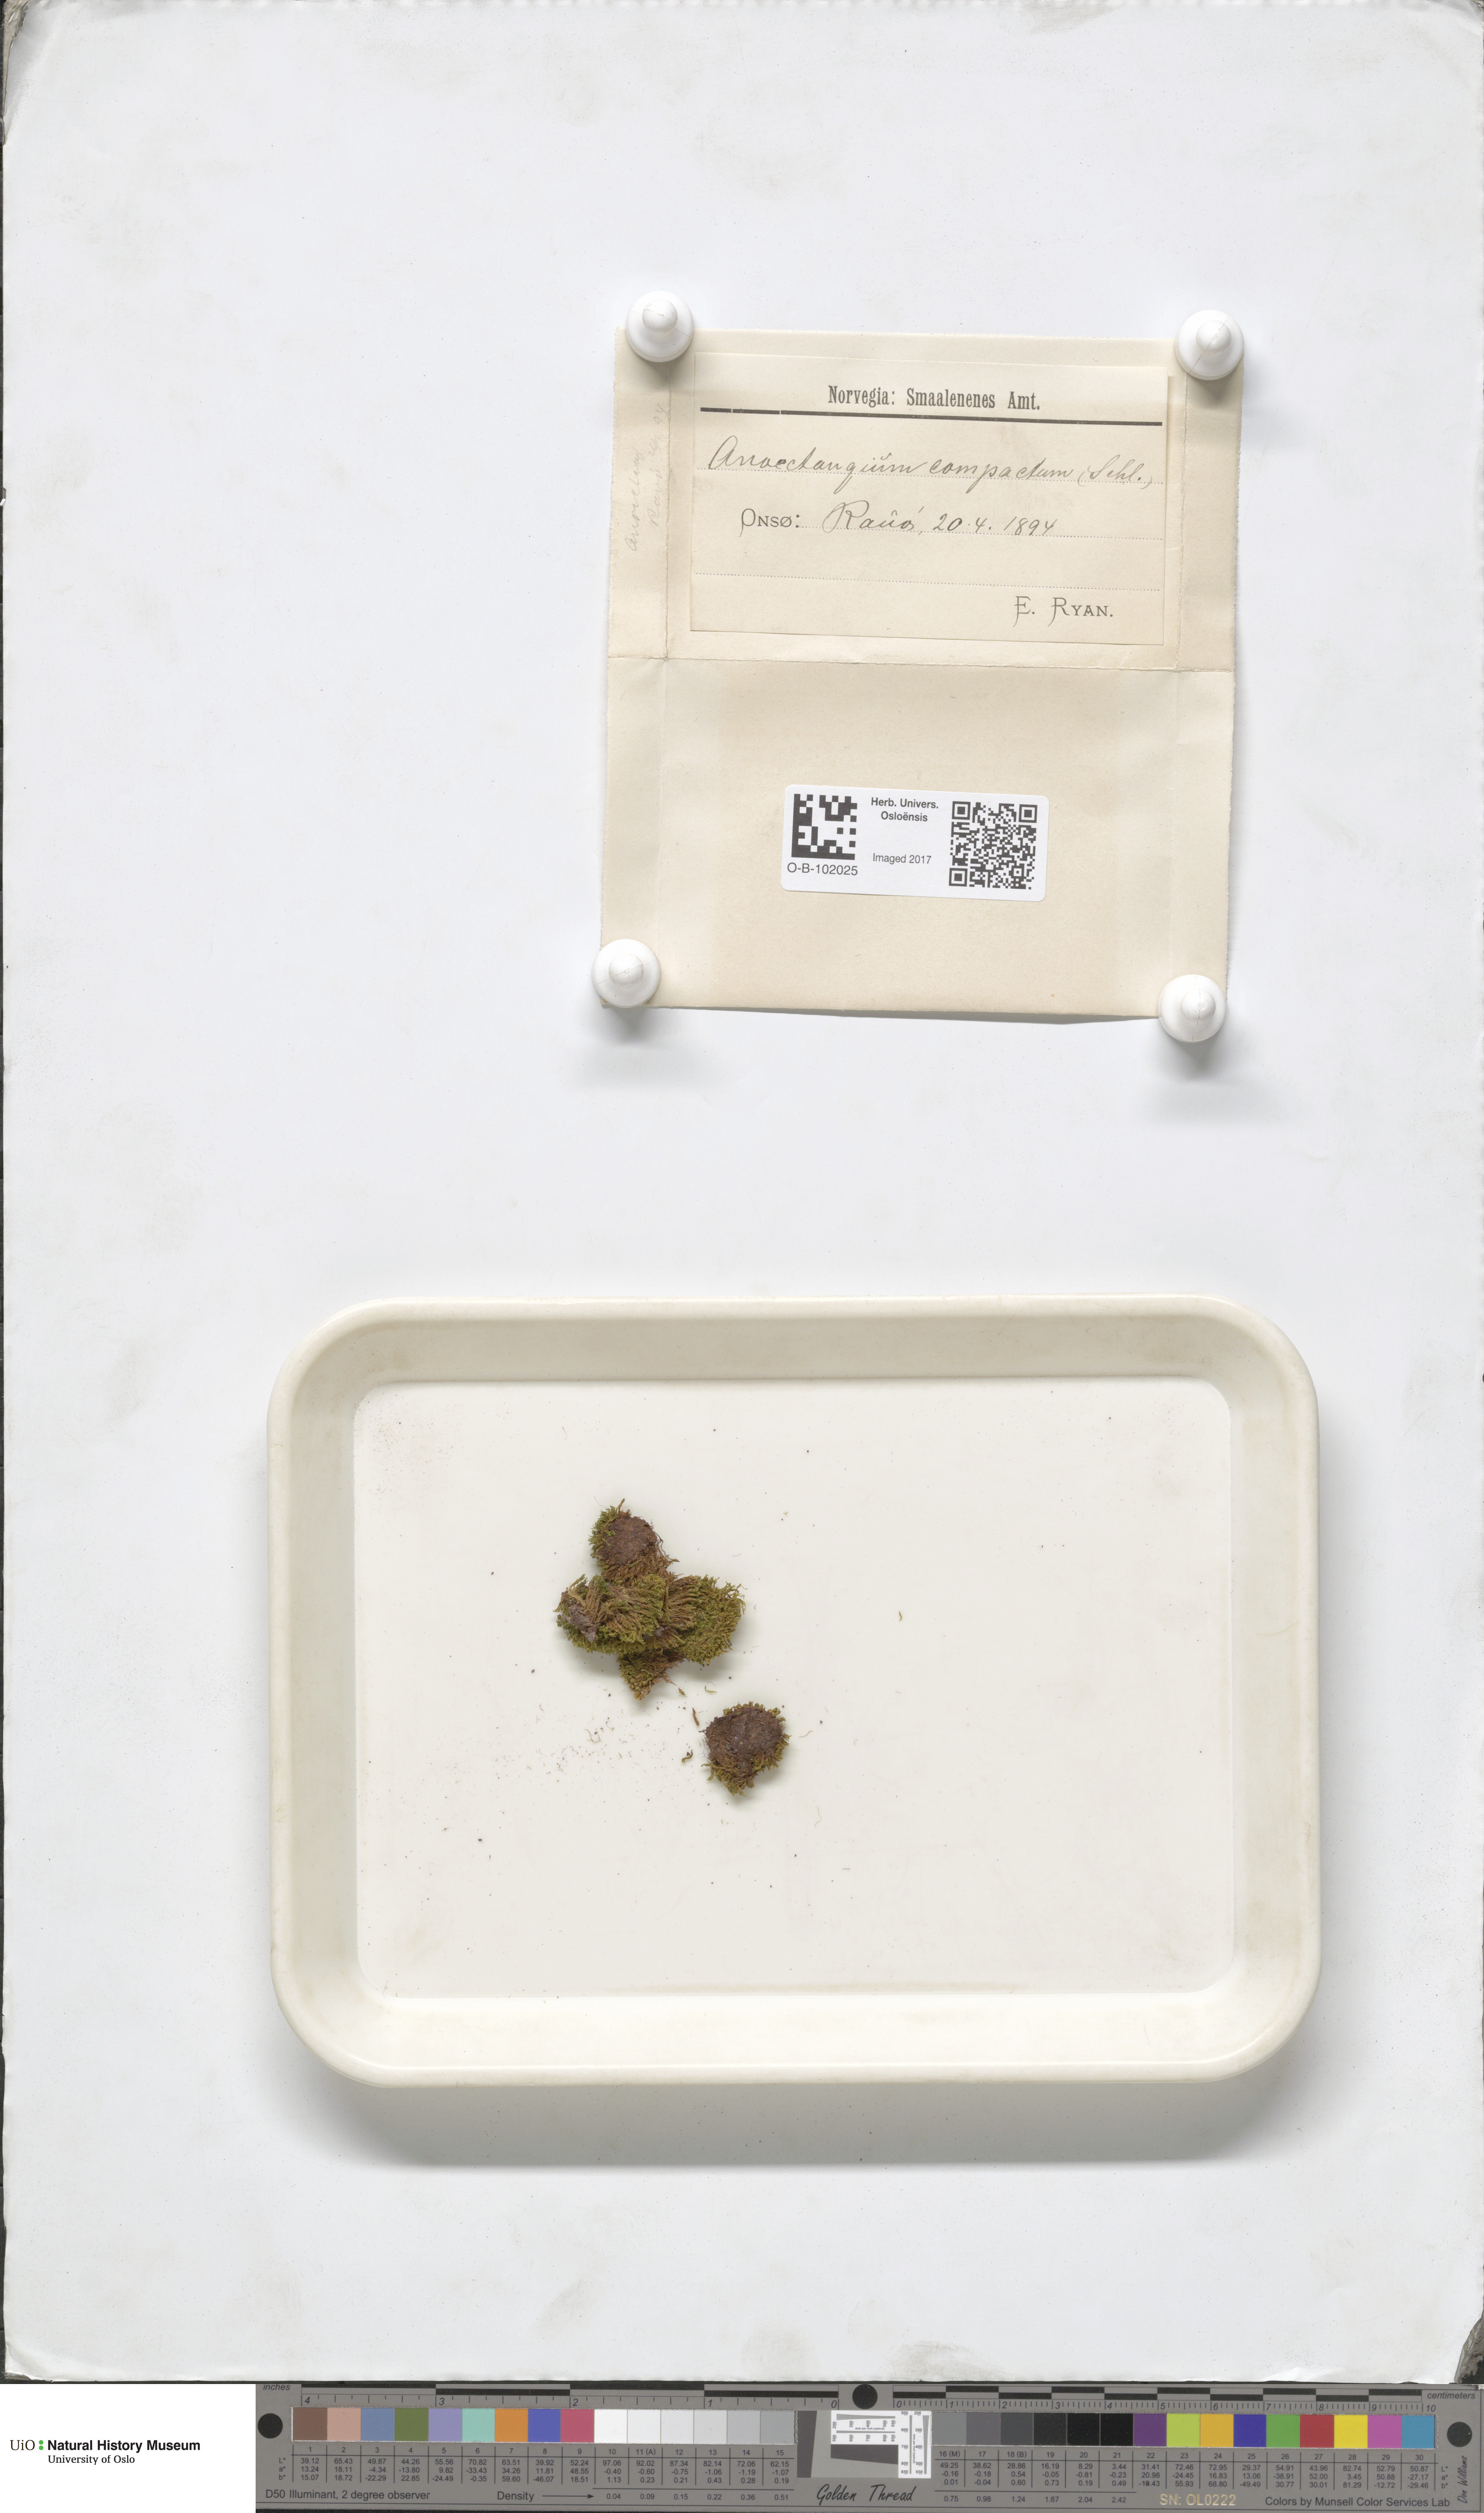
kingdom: Plantae
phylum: Bryophyta
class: Bryopsida
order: Pottiales
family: Pottiaceae
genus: Anoectangium
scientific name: Anoectangium aestivum
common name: Summer-moss
